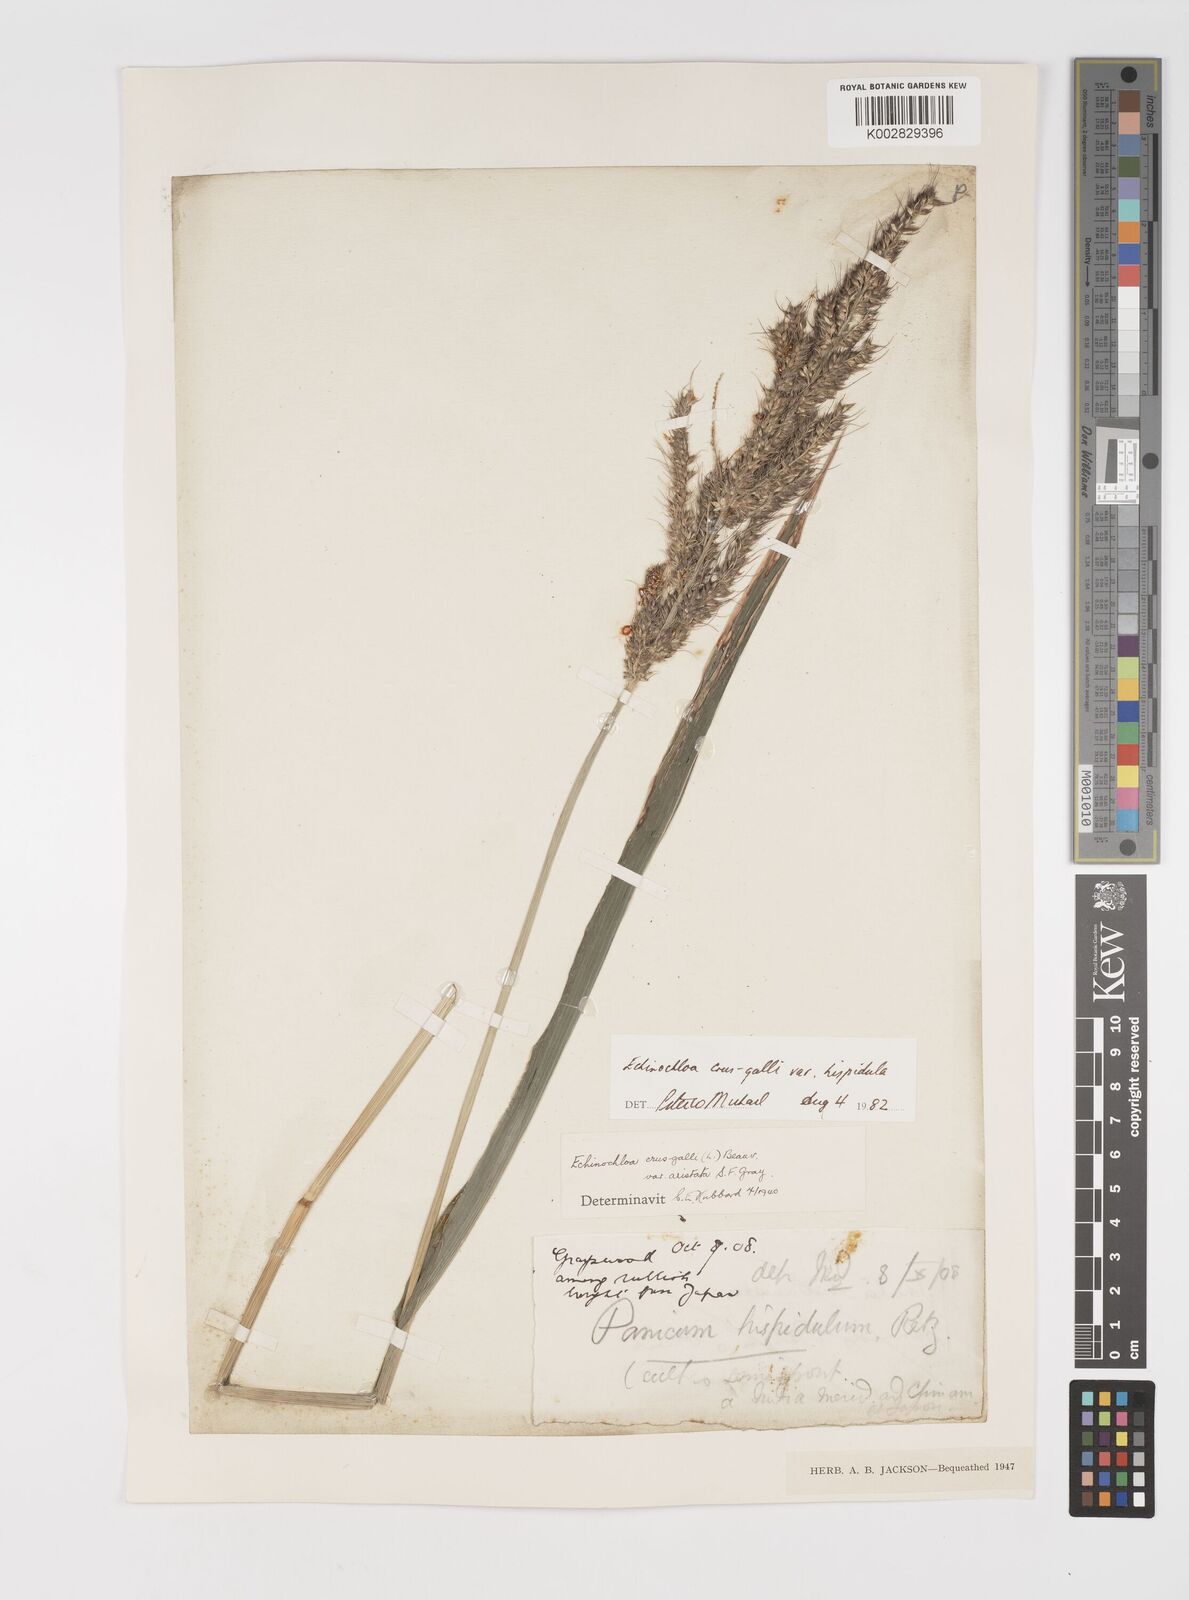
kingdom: Plantae
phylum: Tracheophyta
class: Liliopsida
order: Poales
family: Poaceae
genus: Echinochloa
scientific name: Echinochloa crus-galli
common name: Cockspur
